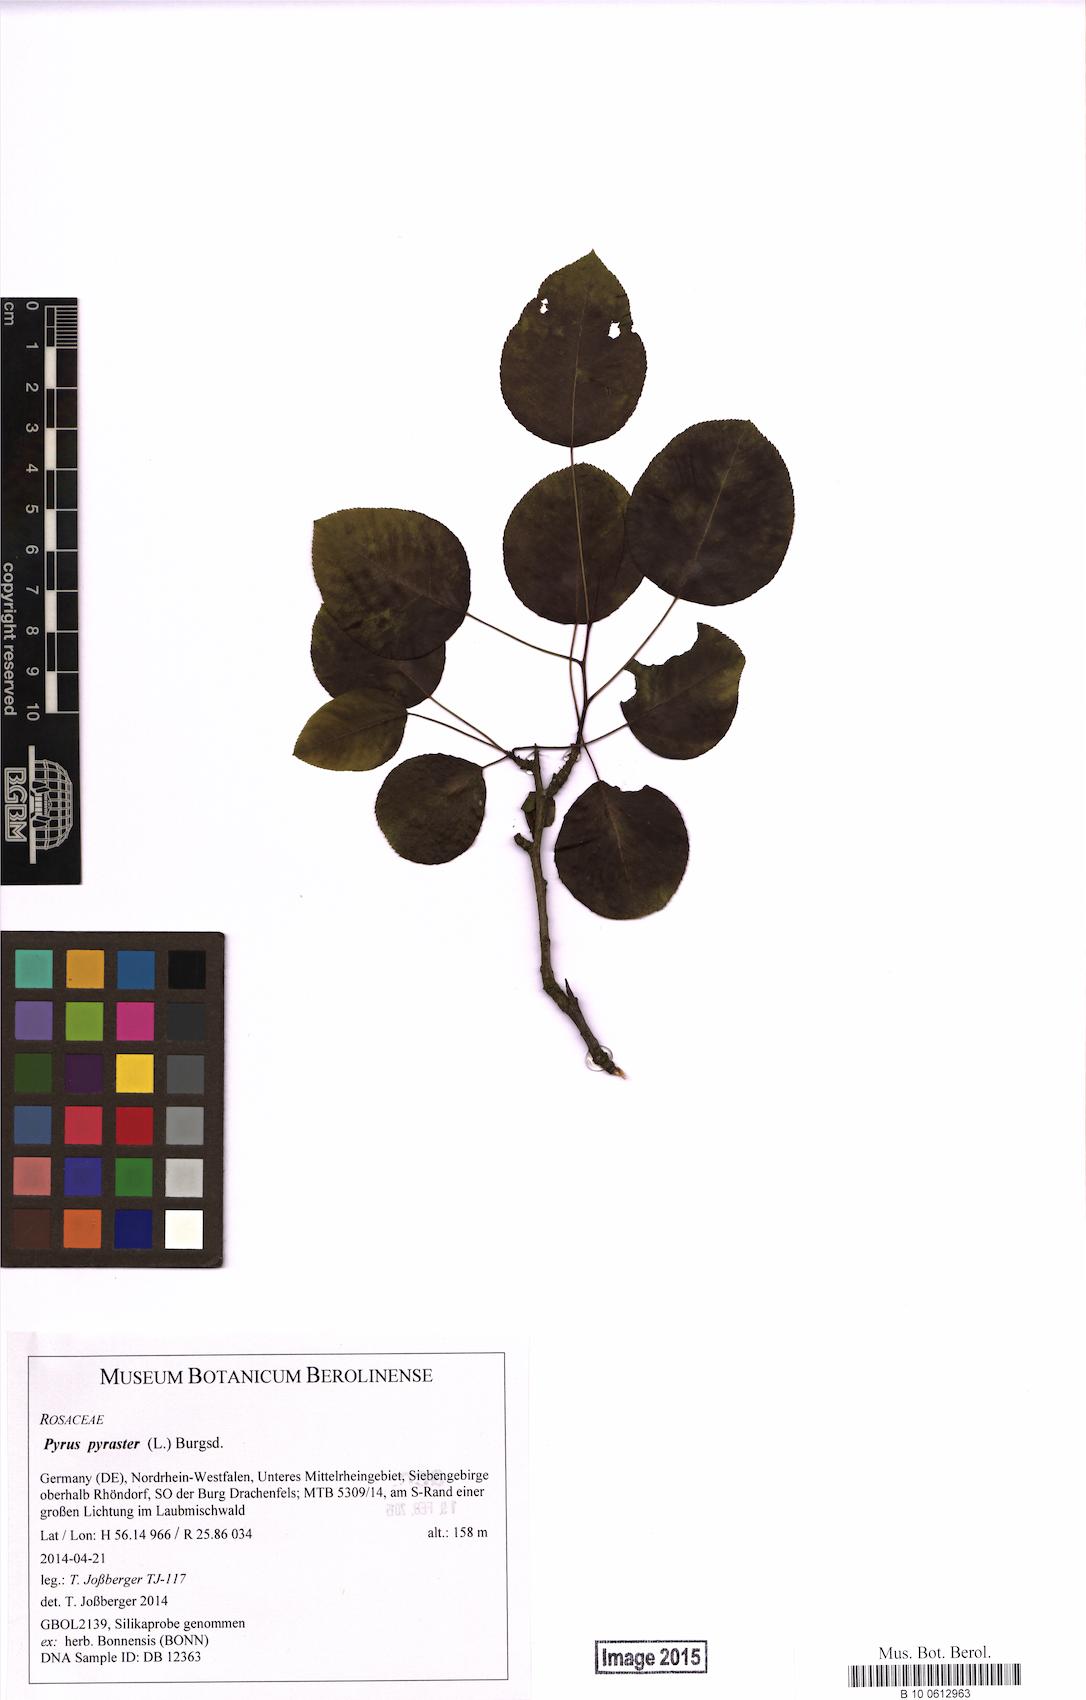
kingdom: Plantae
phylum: Tracheophyta
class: Magnoliopsida
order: Rosales
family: Rosaceae
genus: Pyrus
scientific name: Pyrus pyraster
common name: Wild pear
